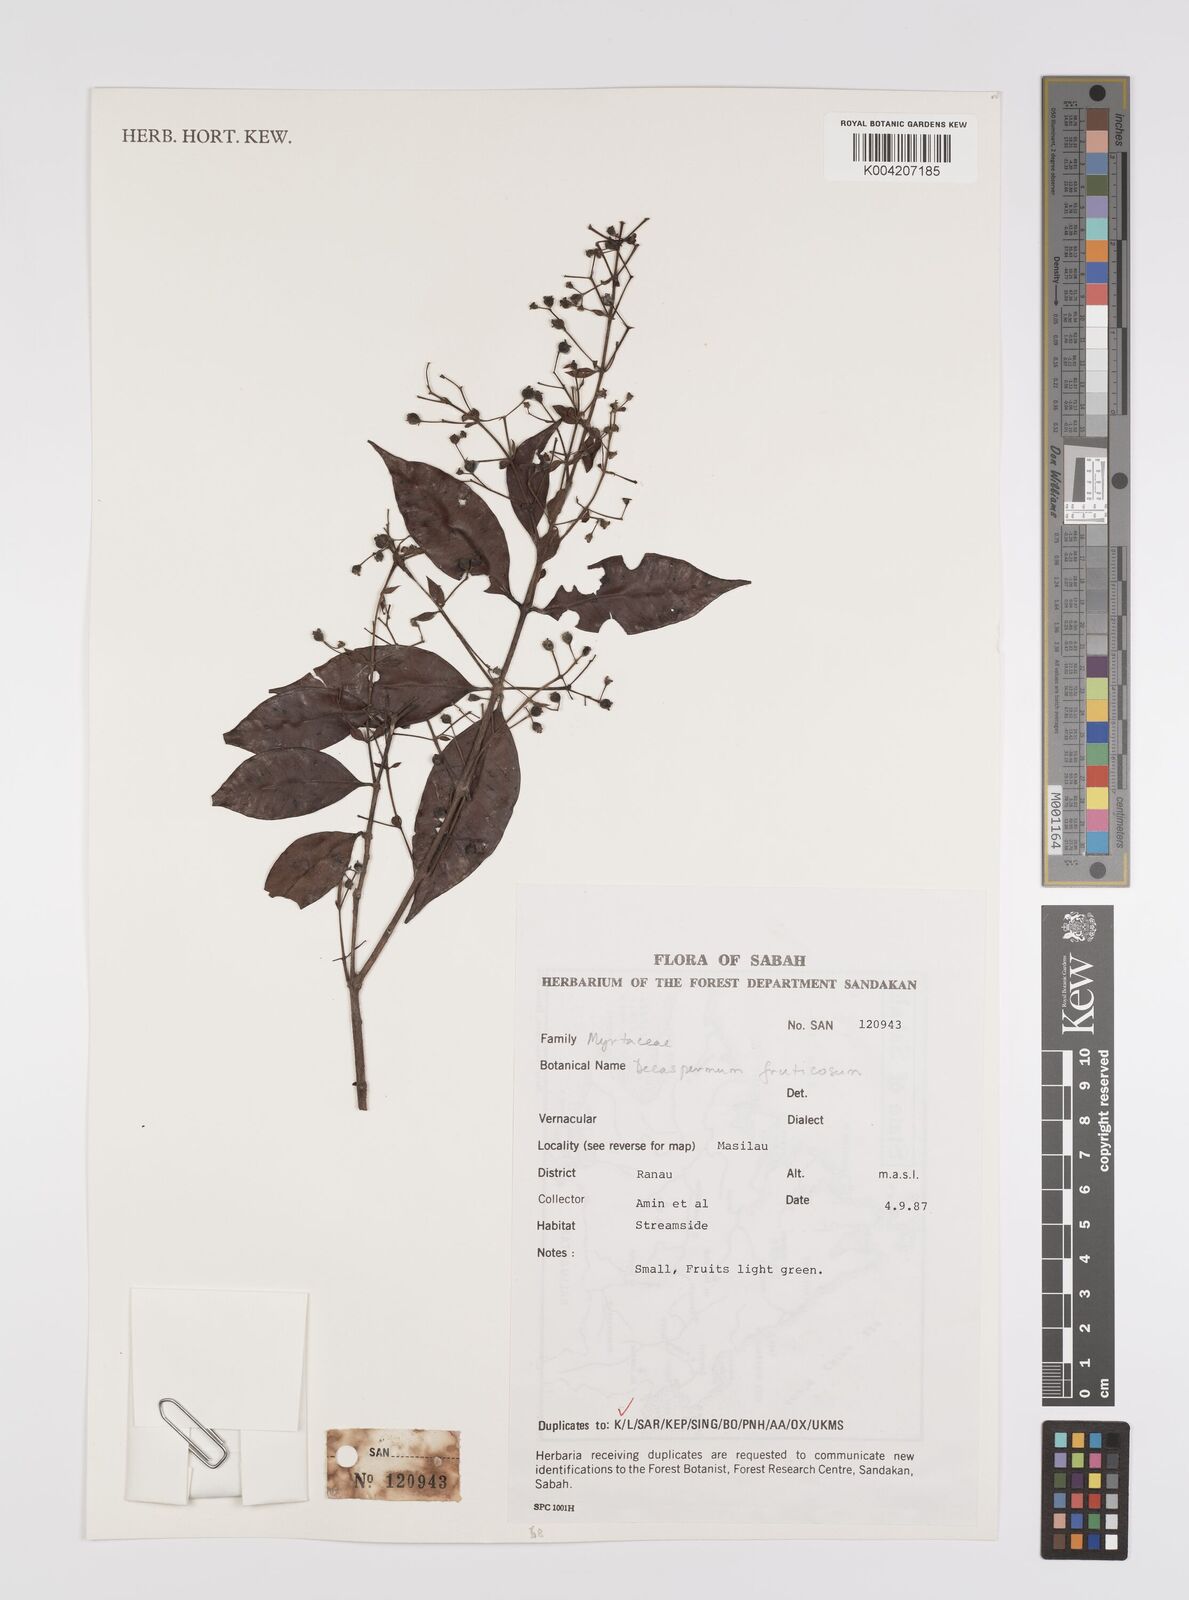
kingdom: Plantae
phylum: Tracheophyta
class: Magnoliopsida
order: Myrtales
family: Myrtaceae
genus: Decaspermum
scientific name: Decaspermum parviflorum
